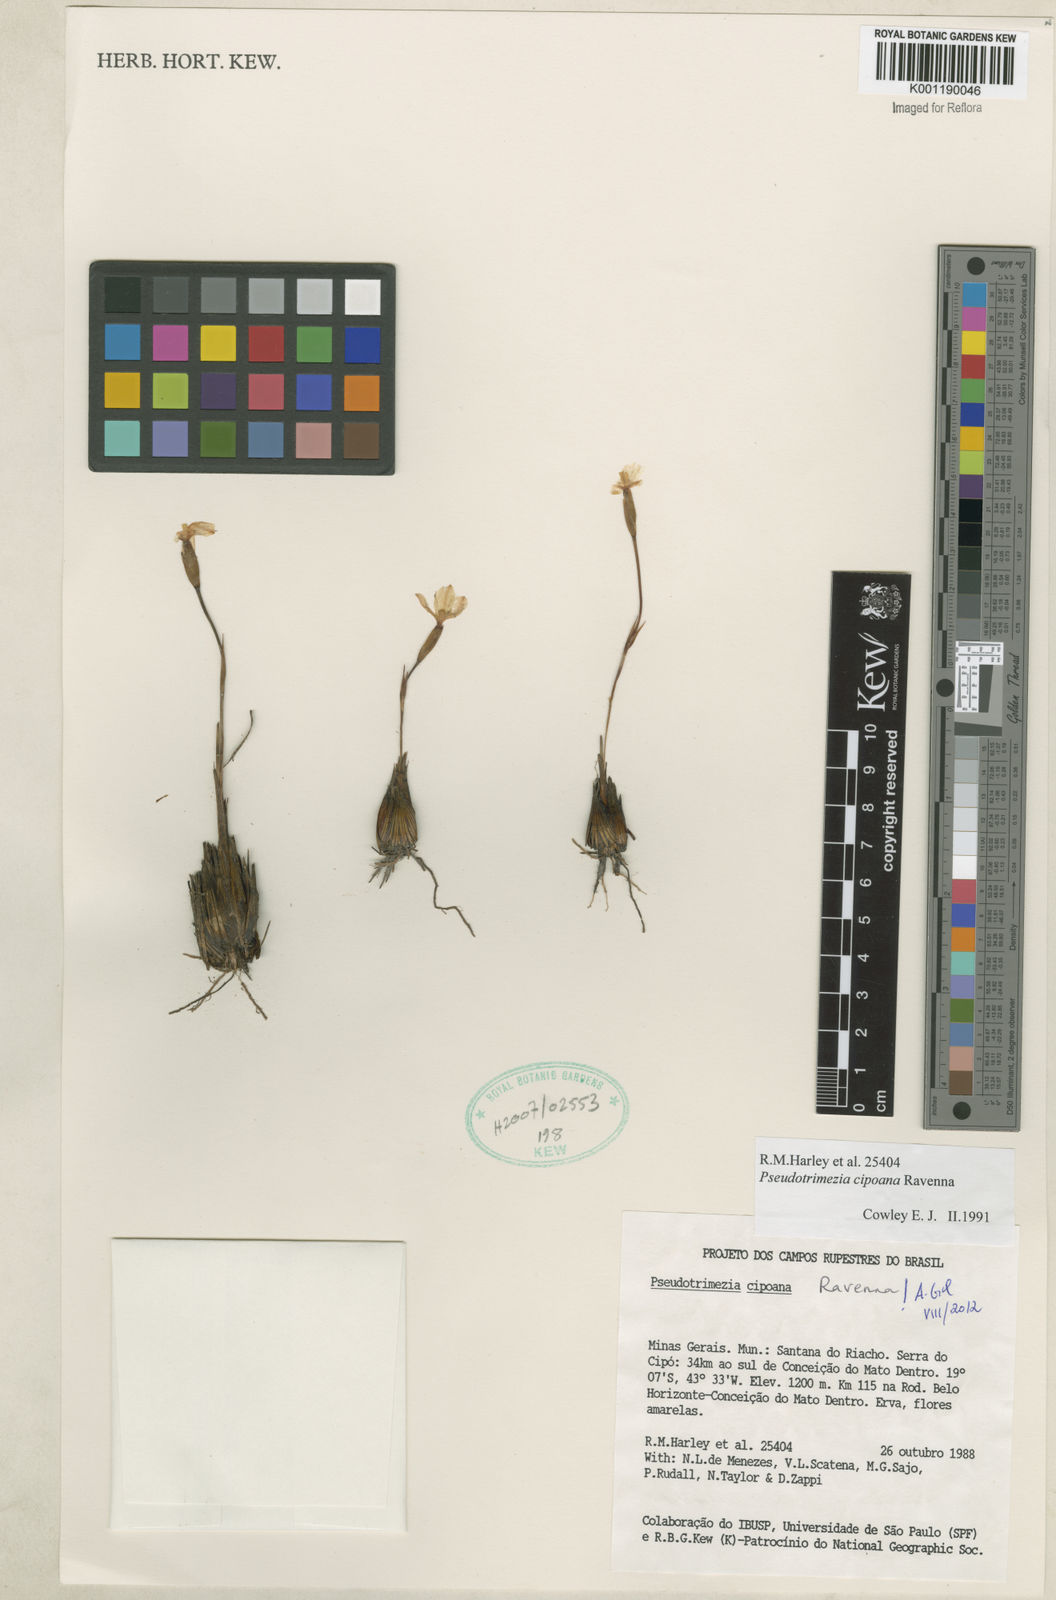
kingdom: Plantae
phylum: Tracheophyta
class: Liliopsida
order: Asparagales
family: Iridaceae
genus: Trimezia
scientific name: Trimezia cipoana
